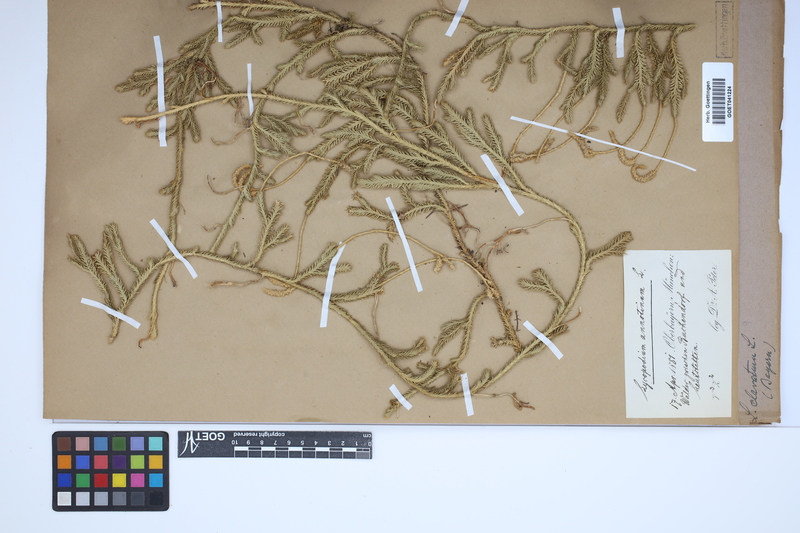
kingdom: Plantae
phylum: Tracheophyta
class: Lycopodiopsida
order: Lycopodiales
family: Lycopodiaceae
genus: Lycopodium
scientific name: Lycopodium clavatum
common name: Stag's-horn clubmoss
